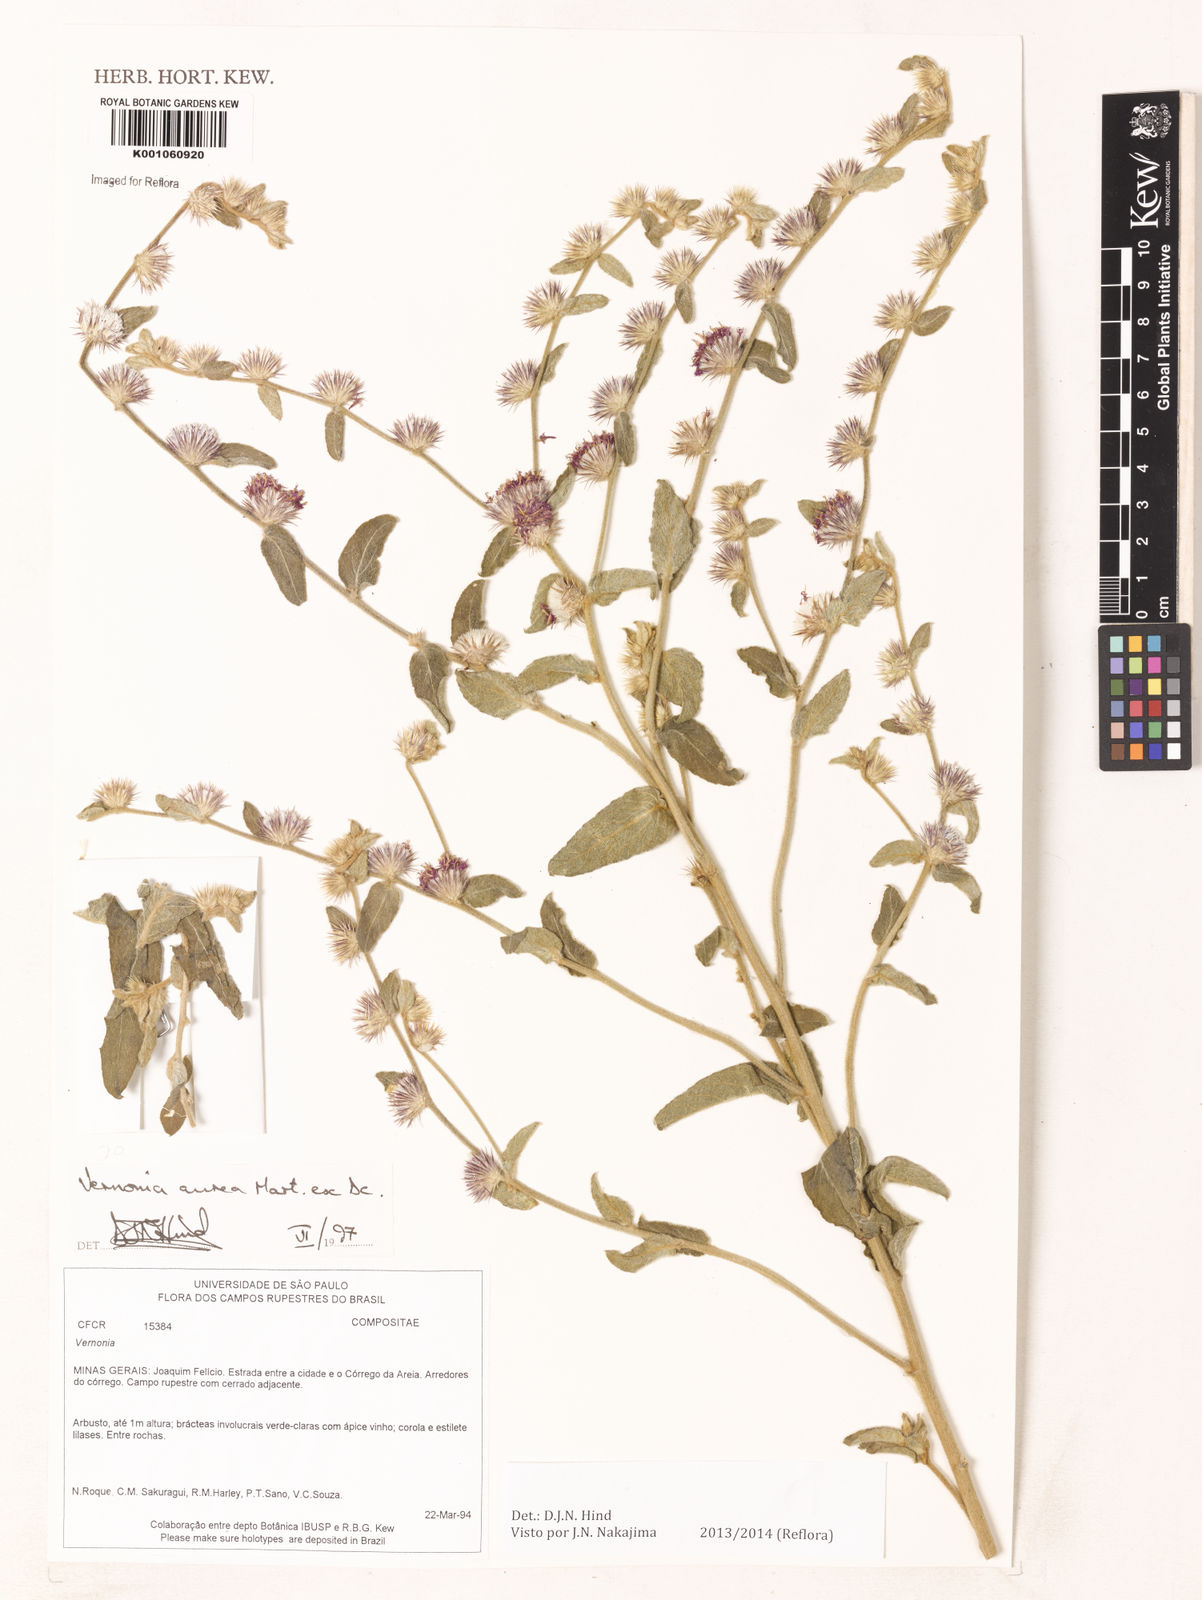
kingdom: Plantae
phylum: Tracheophyta
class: Magnoliopsida
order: Asterales
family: Asteraceae
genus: Lepidaploa
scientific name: Lepidaploa aurea
